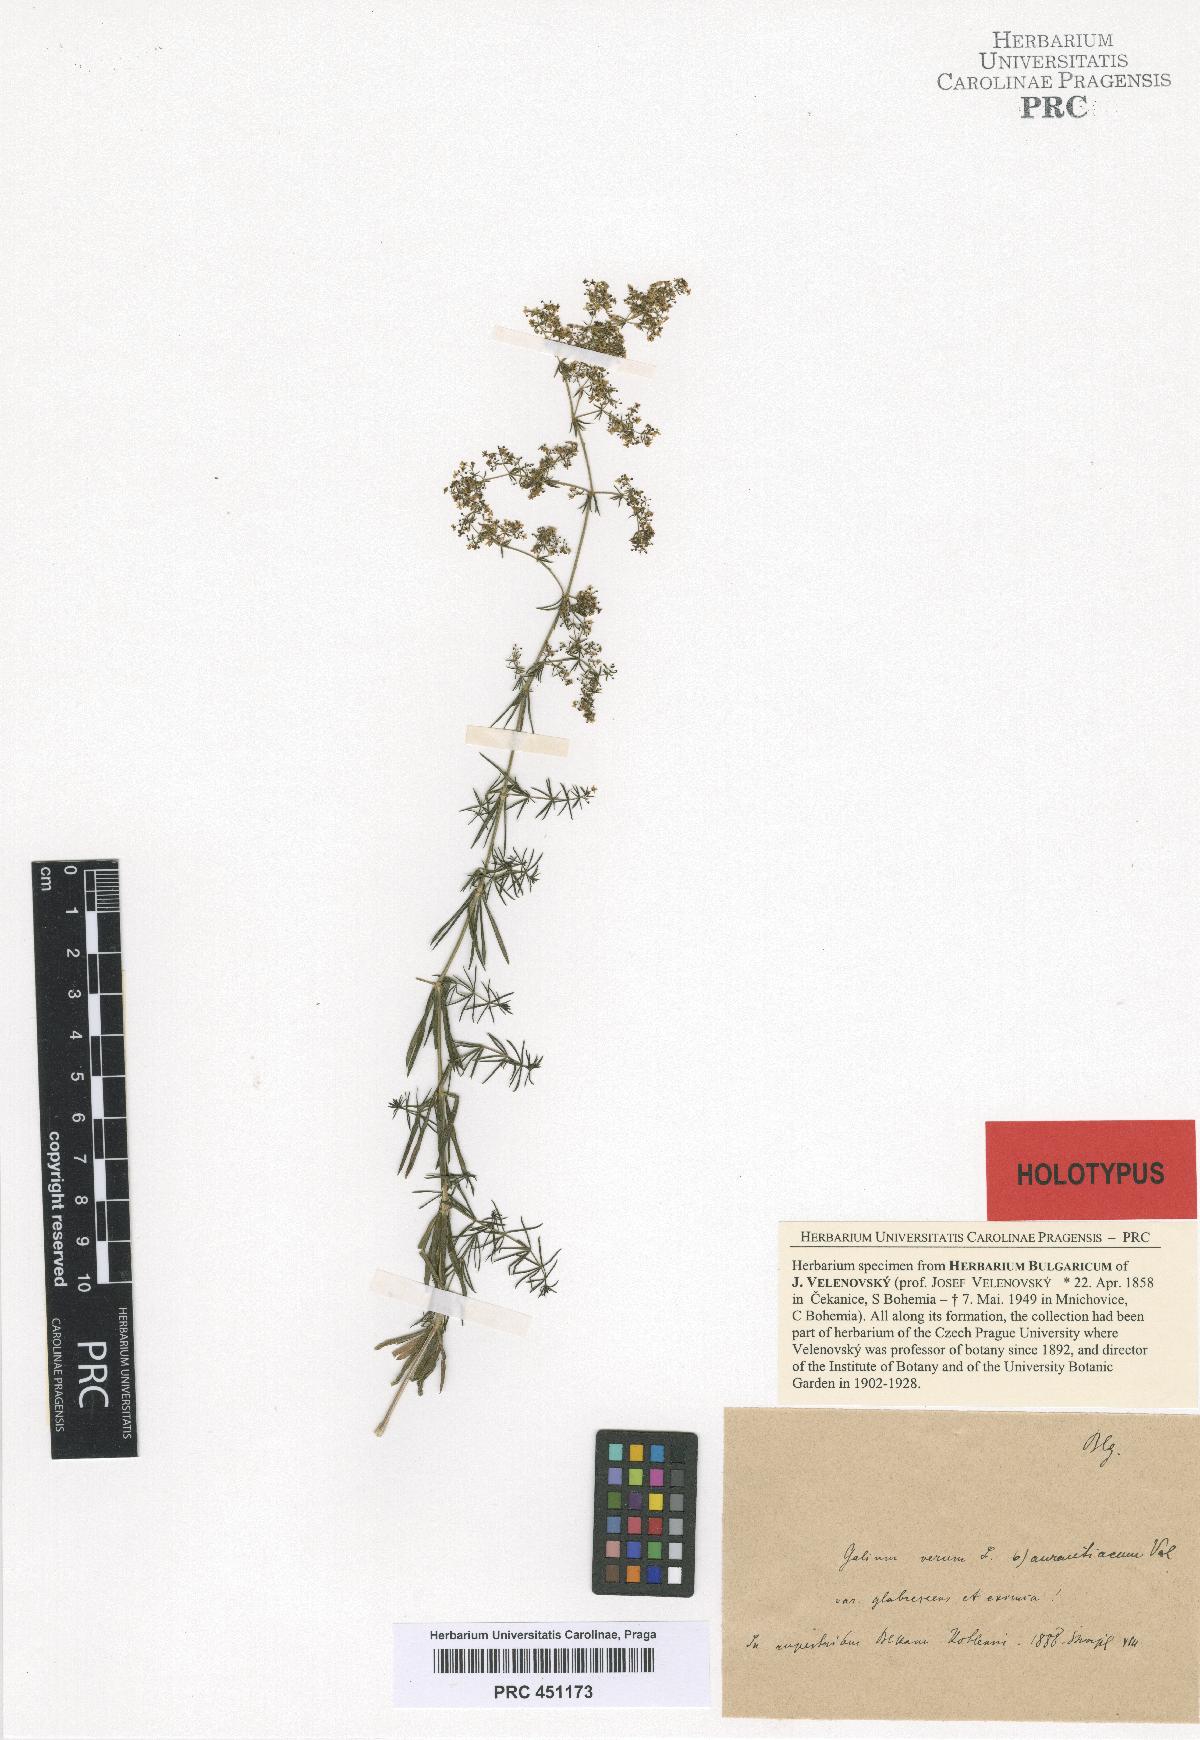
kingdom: Plantae
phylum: Tracheophyta
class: Magnoliopsida
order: Gentianales
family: Rubiaceae
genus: Galium
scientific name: Galium verum
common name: Lady's bedstraw
